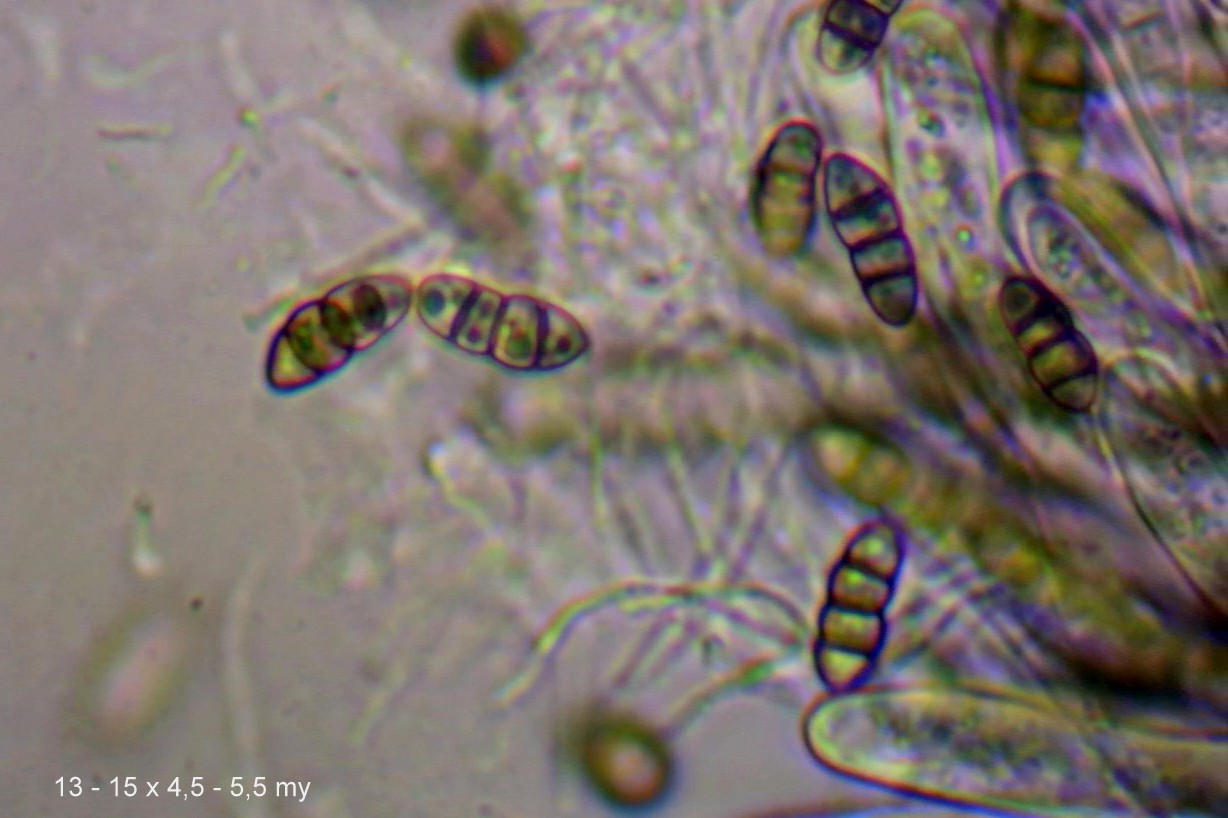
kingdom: Fungi
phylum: Ascomycota
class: Dothideomycetes
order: Pleosporales
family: Melanommataceae
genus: Melanomma
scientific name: Melanomma pulvis-pyrius
